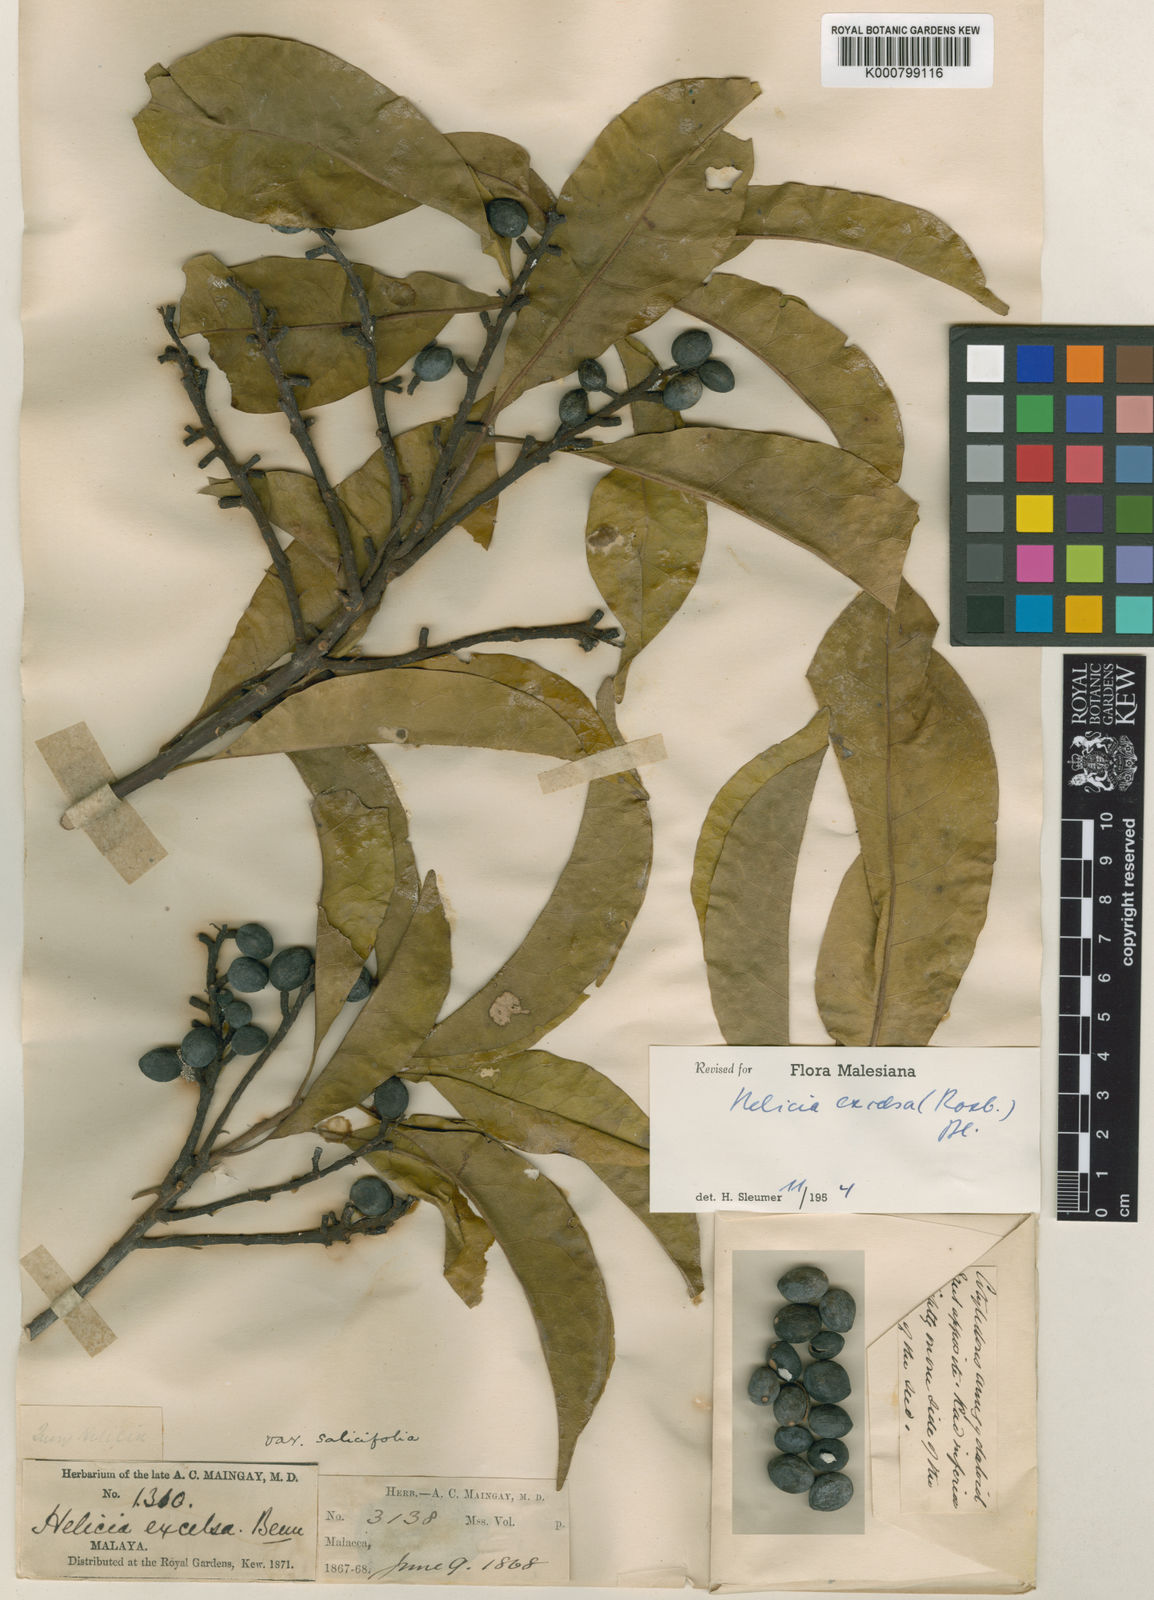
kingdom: Plantae
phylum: Tracheophyta
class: Magnoliopsida
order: Proteales
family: Proteaceae
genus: Helicia
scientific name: Helicia excelsa
